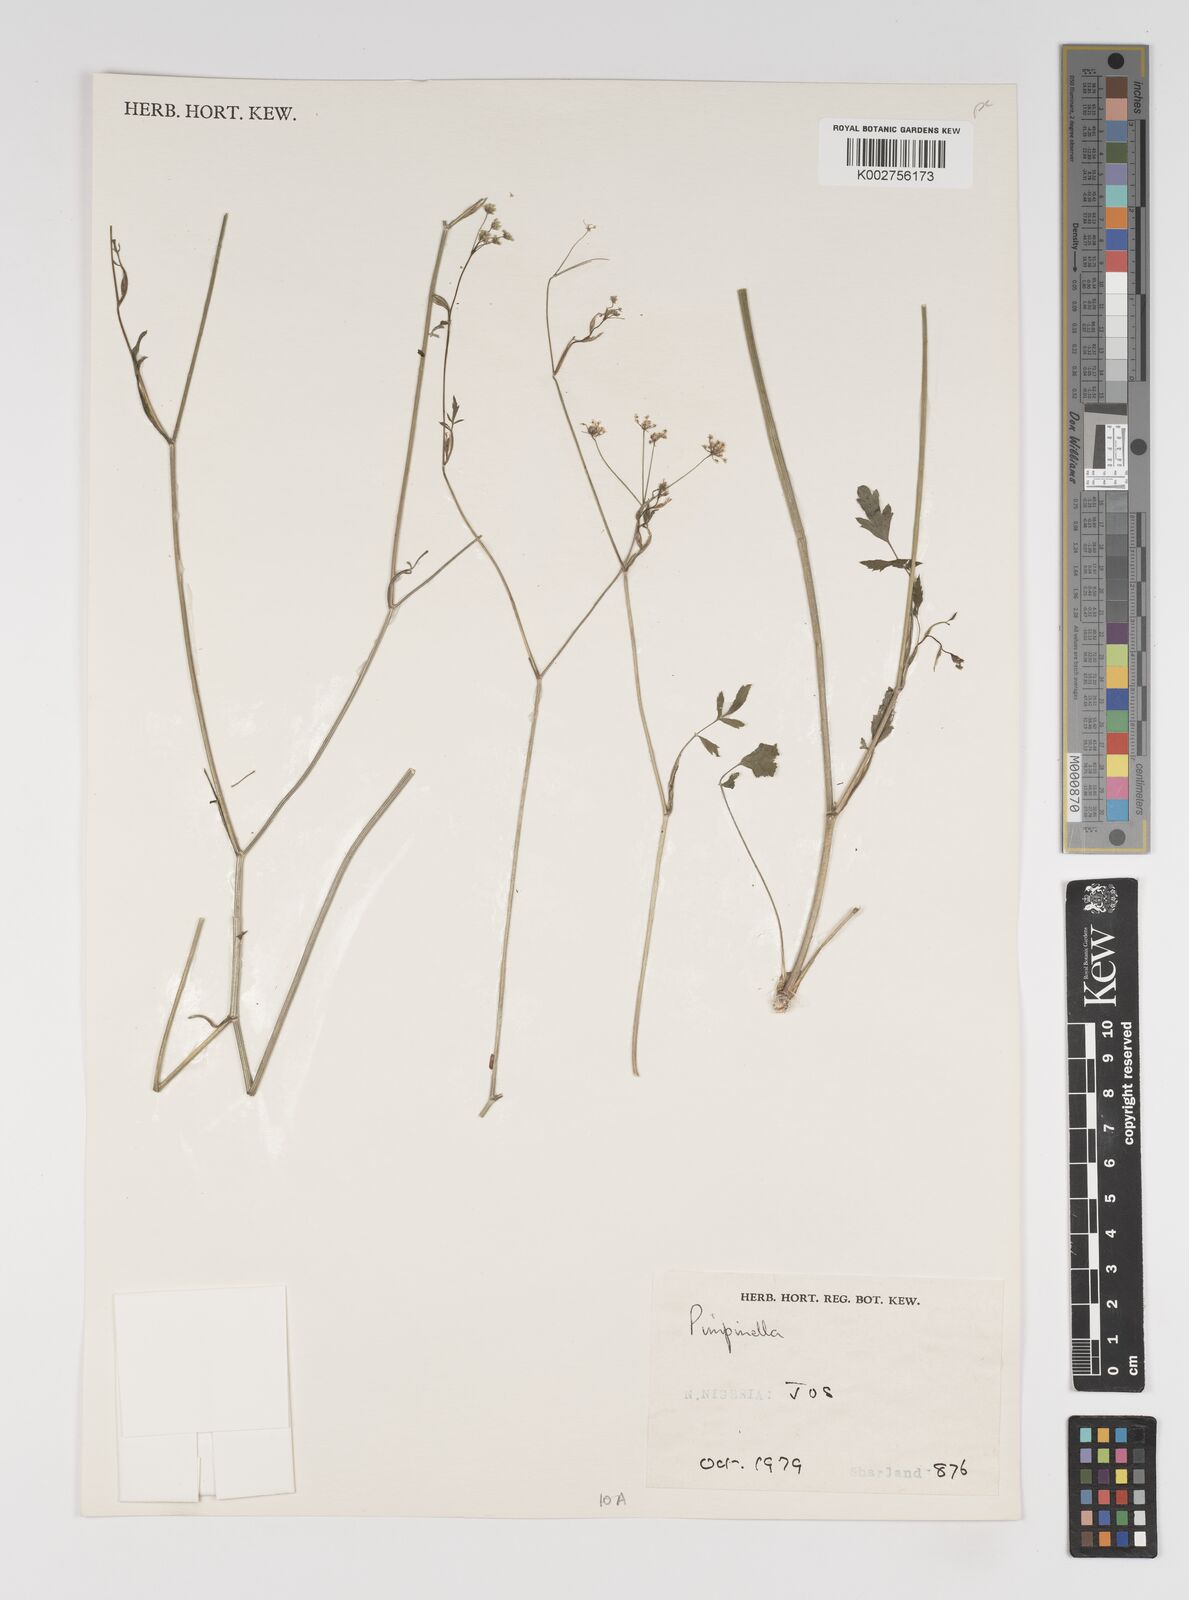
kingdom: Plantae
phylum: Tracheophyta
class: Magnoliopsida
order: Apiales
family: Apiaceae
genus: Pimpinella
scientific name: Pimpinella hirtella
